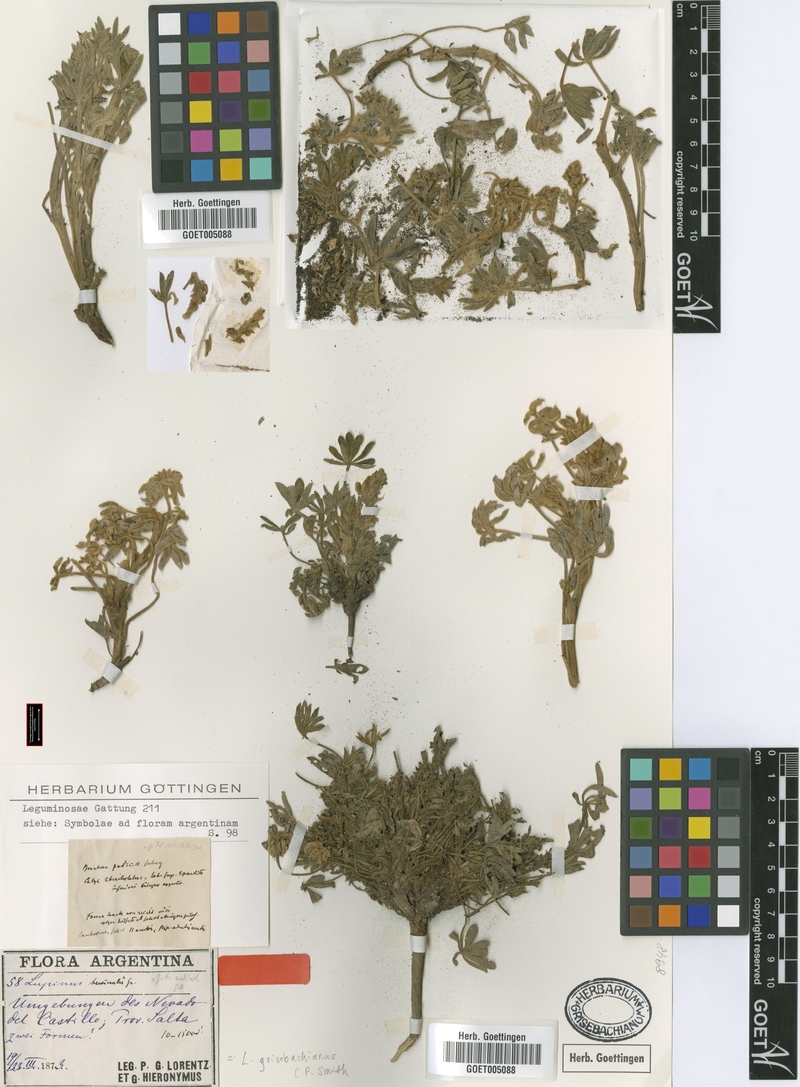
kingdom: Plantae
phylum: Tracheophyta
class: Magnoliopsida
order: Fabales
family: Fabaceae
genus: Lupinus
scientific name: Lupinus grisebachianus
